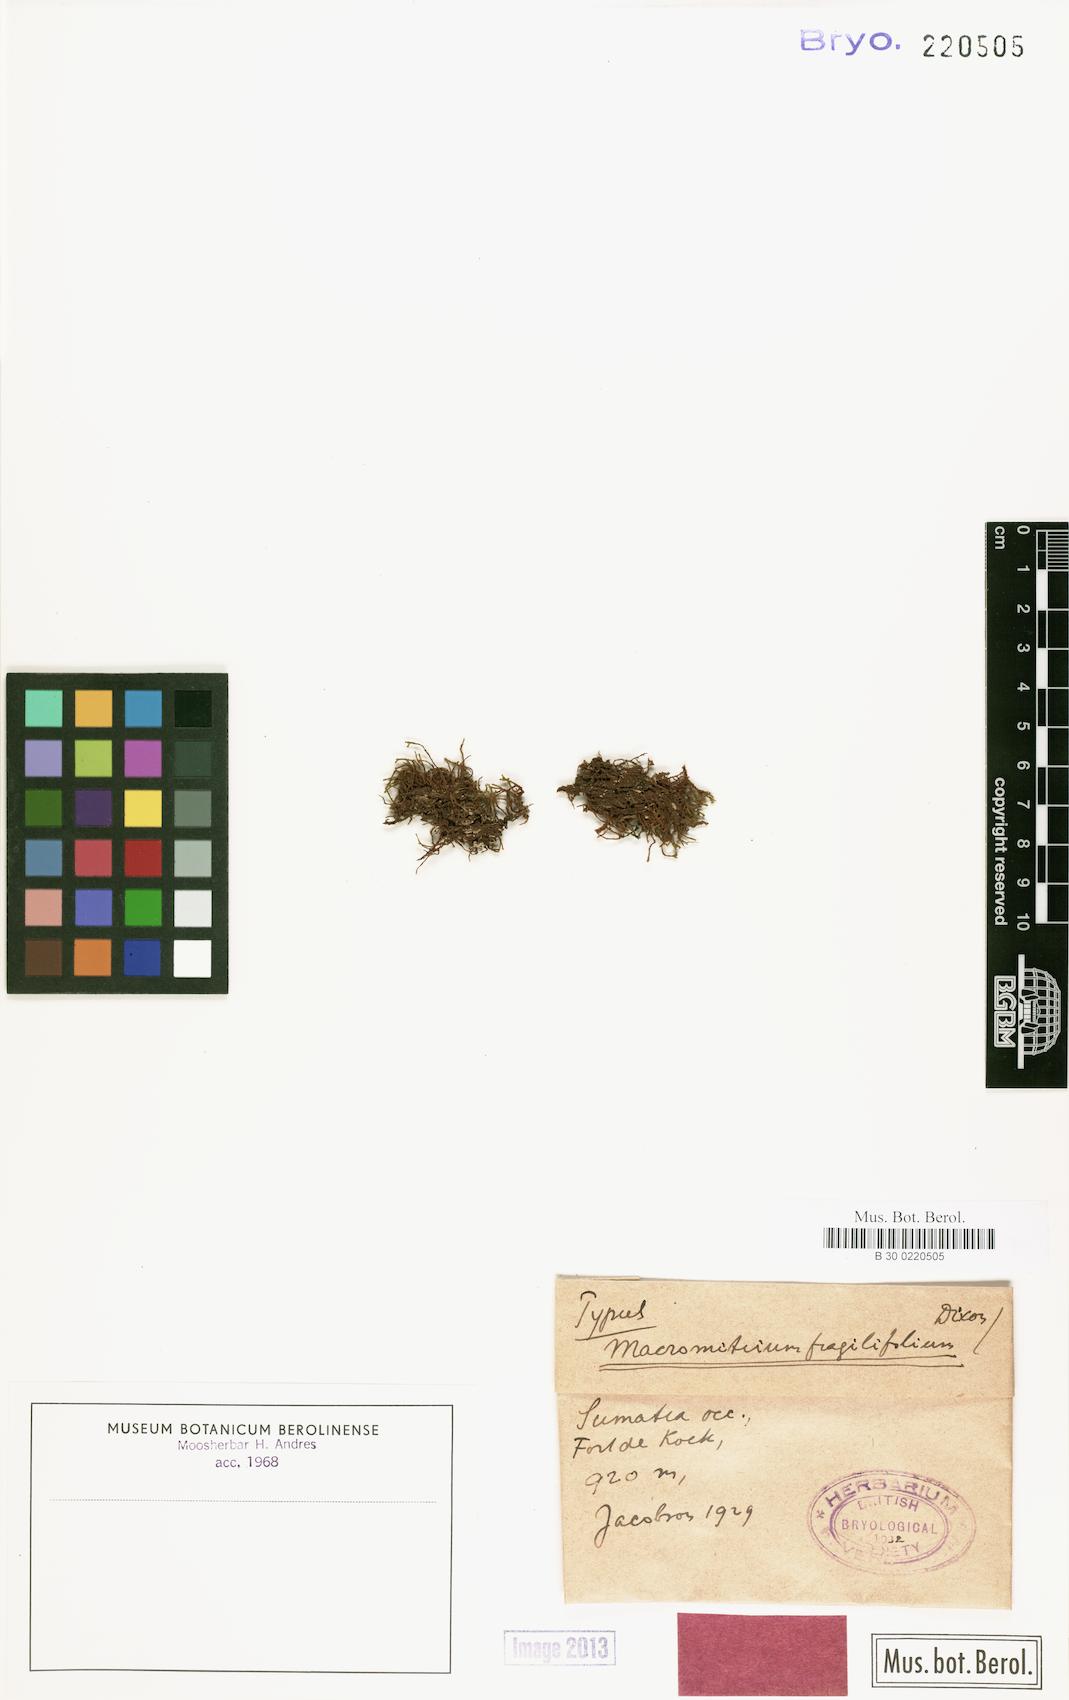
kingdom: Plantae
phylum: Bryophyta
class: Bryopsida
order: Orthotrichales
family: Orthotrichaceae
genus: Macromitrium
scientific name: Macromitrium orthostichum
